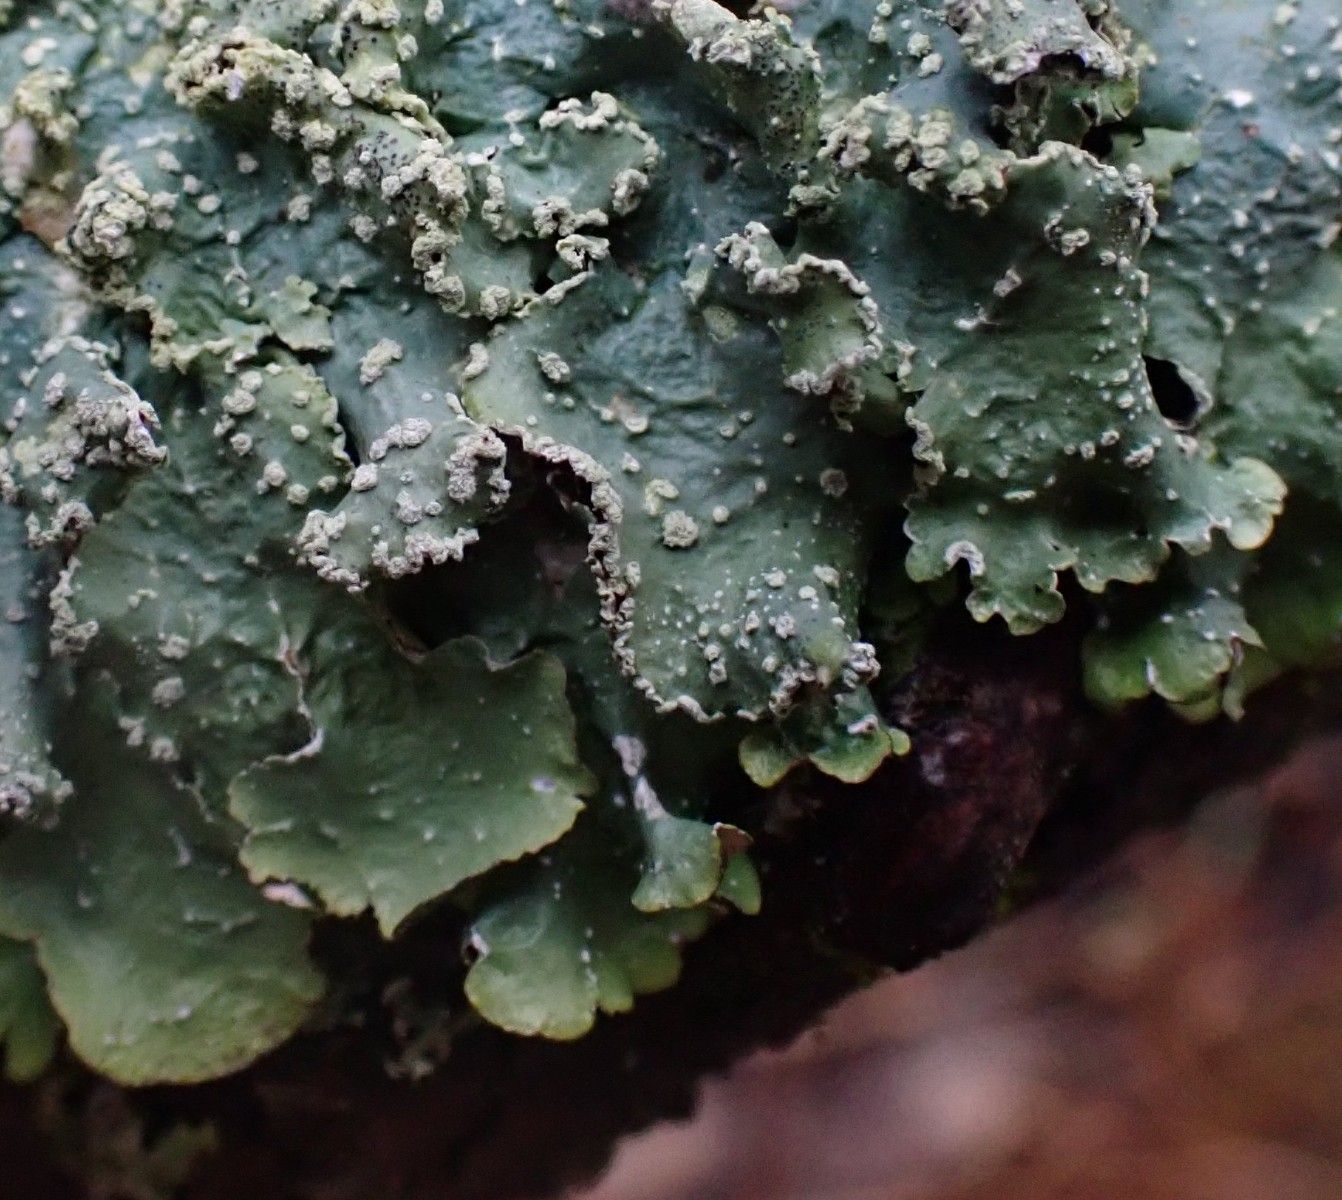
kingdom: Fungi
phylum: Ascomycota
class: Lecanoromycetes
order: Lecanorales
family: Parmeliaceae
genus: Punctelia
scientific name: Punctelia subrudecta
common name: punkt-skållav
